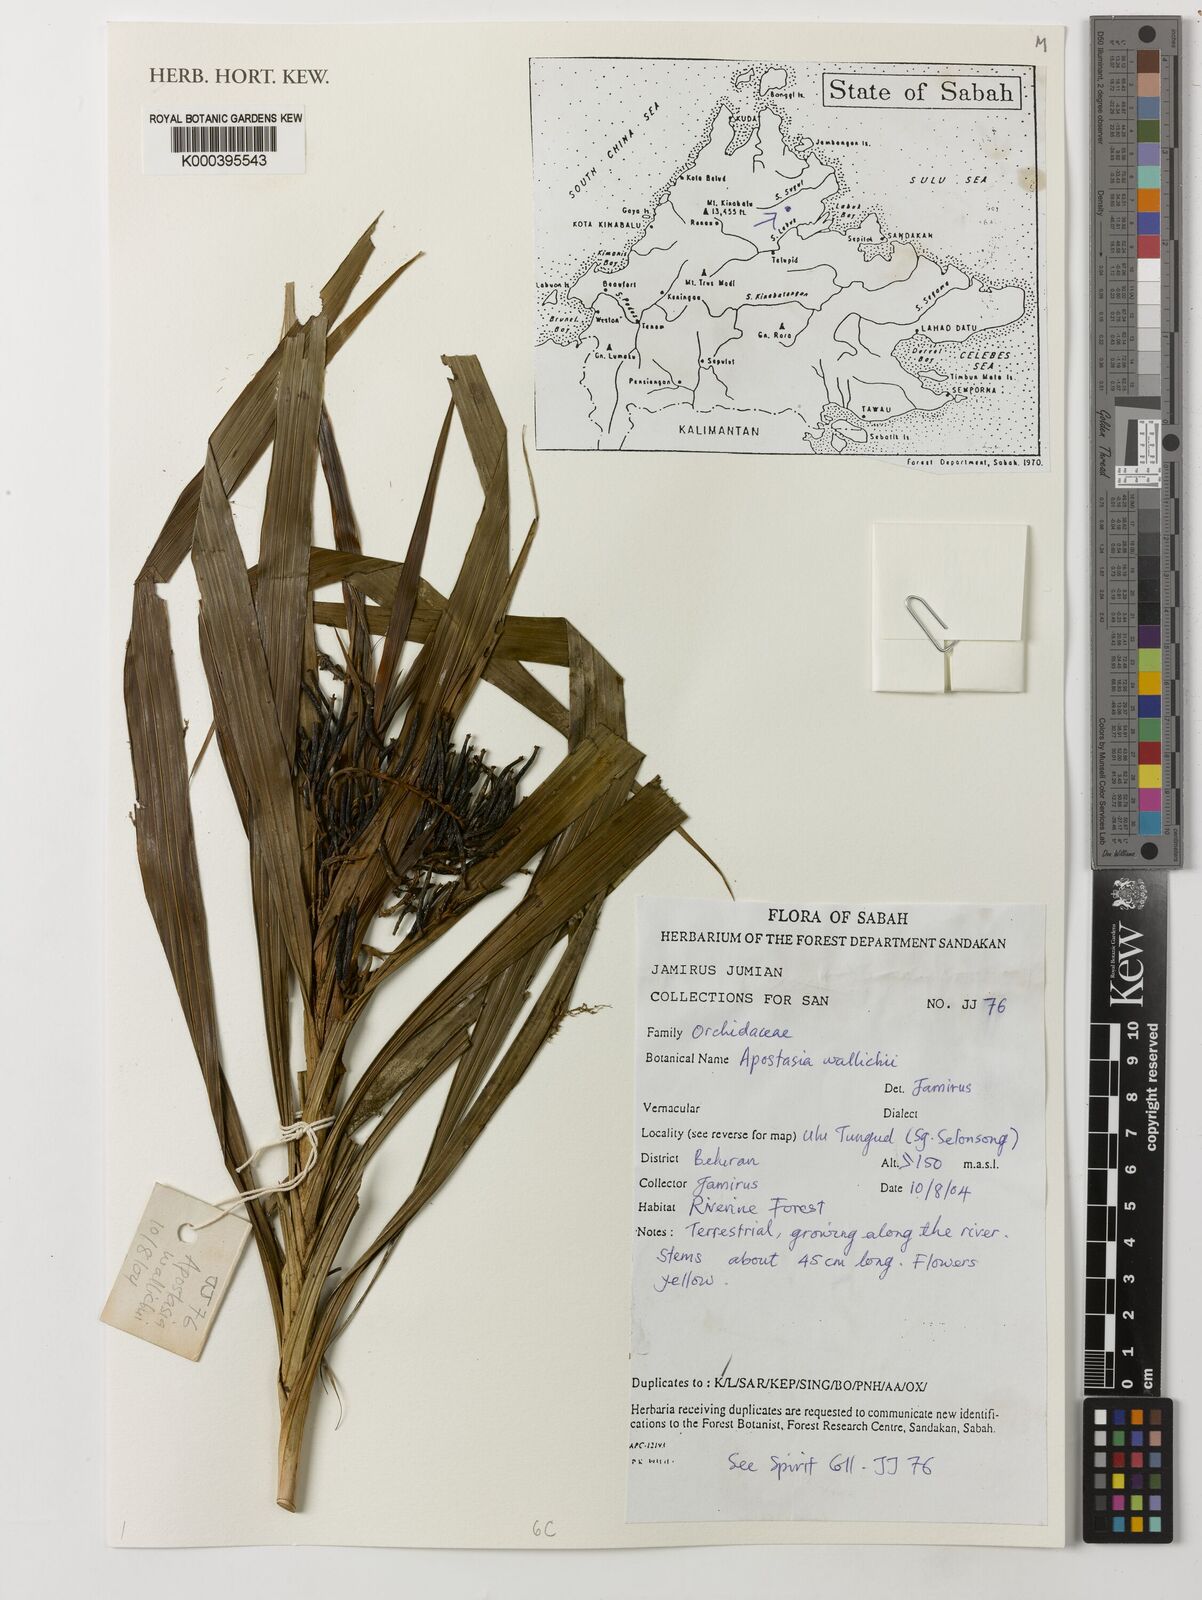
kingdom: Plantae
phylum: Tracheophyta
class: Liliopsida
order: Asparagales
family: Orchidaceae
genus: Apostasia
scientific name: Apostasia wallichii
